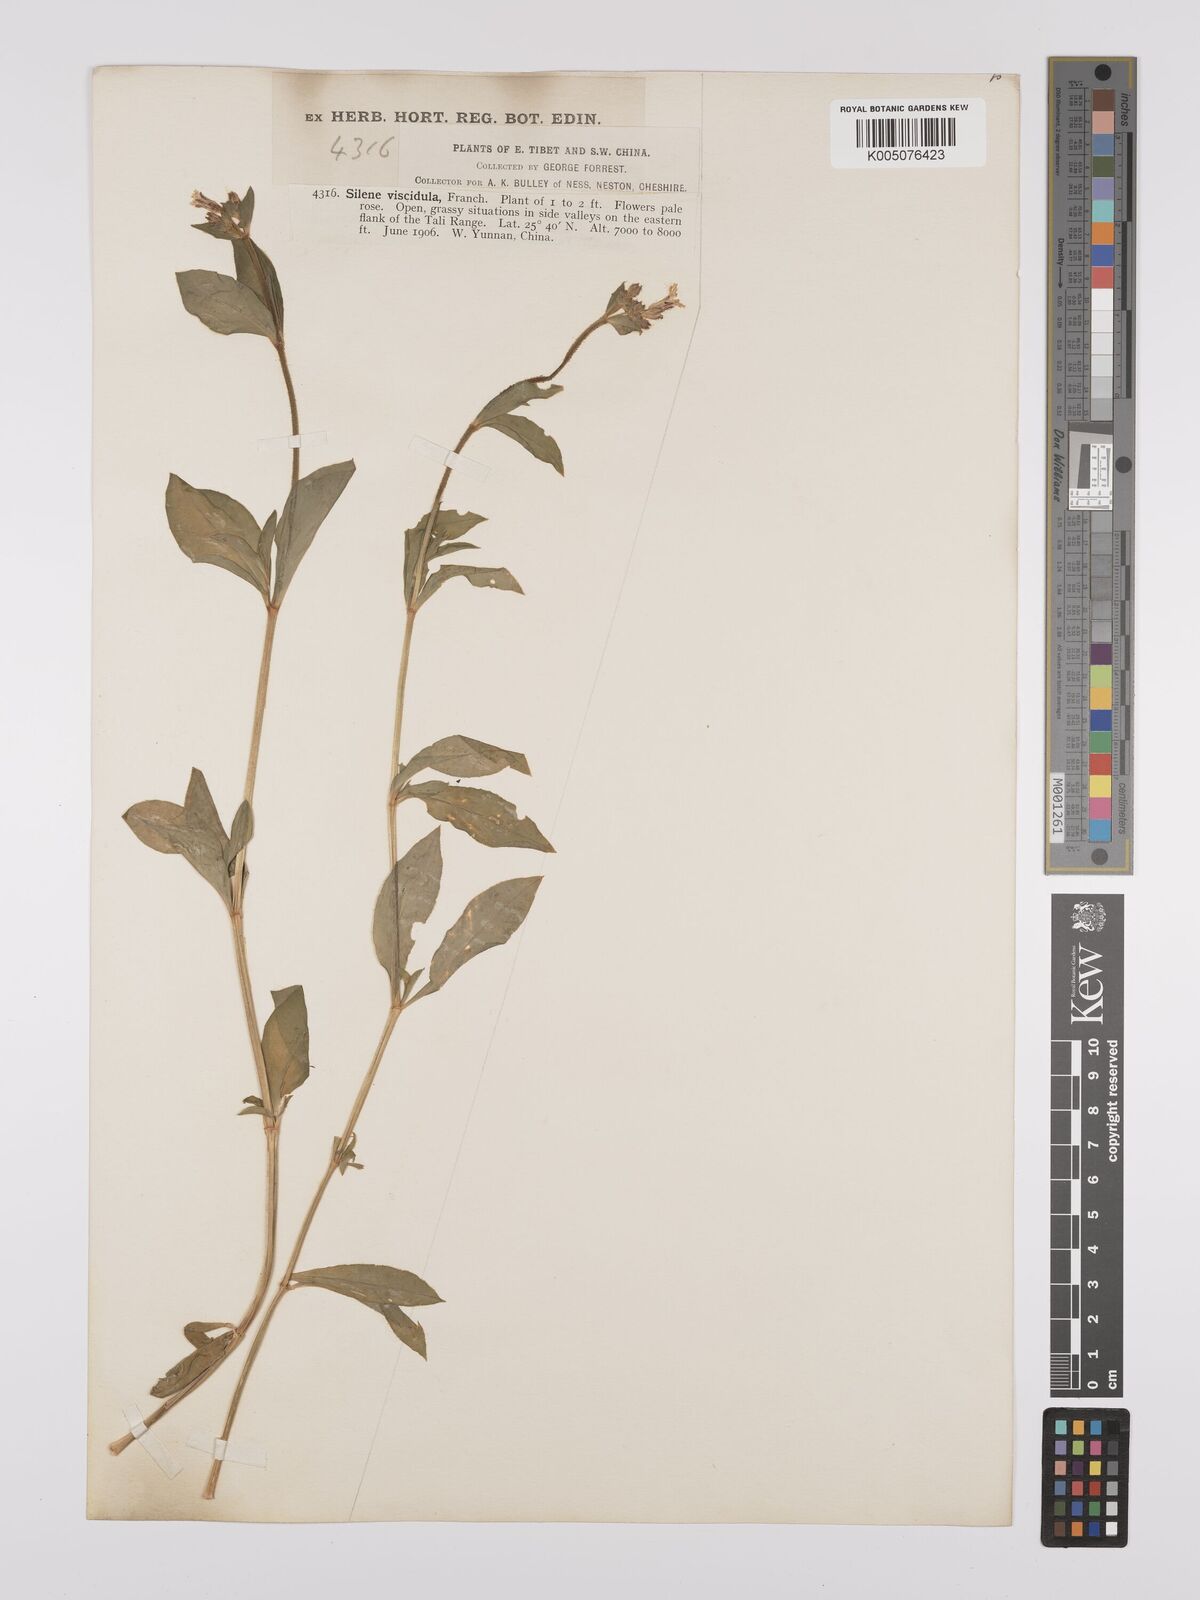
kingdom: Plantae
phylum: Tracheophyta
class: Magnoliopsida
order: Caryophyllales
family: Caryophyllaceae
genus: Silene
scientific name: Silene
